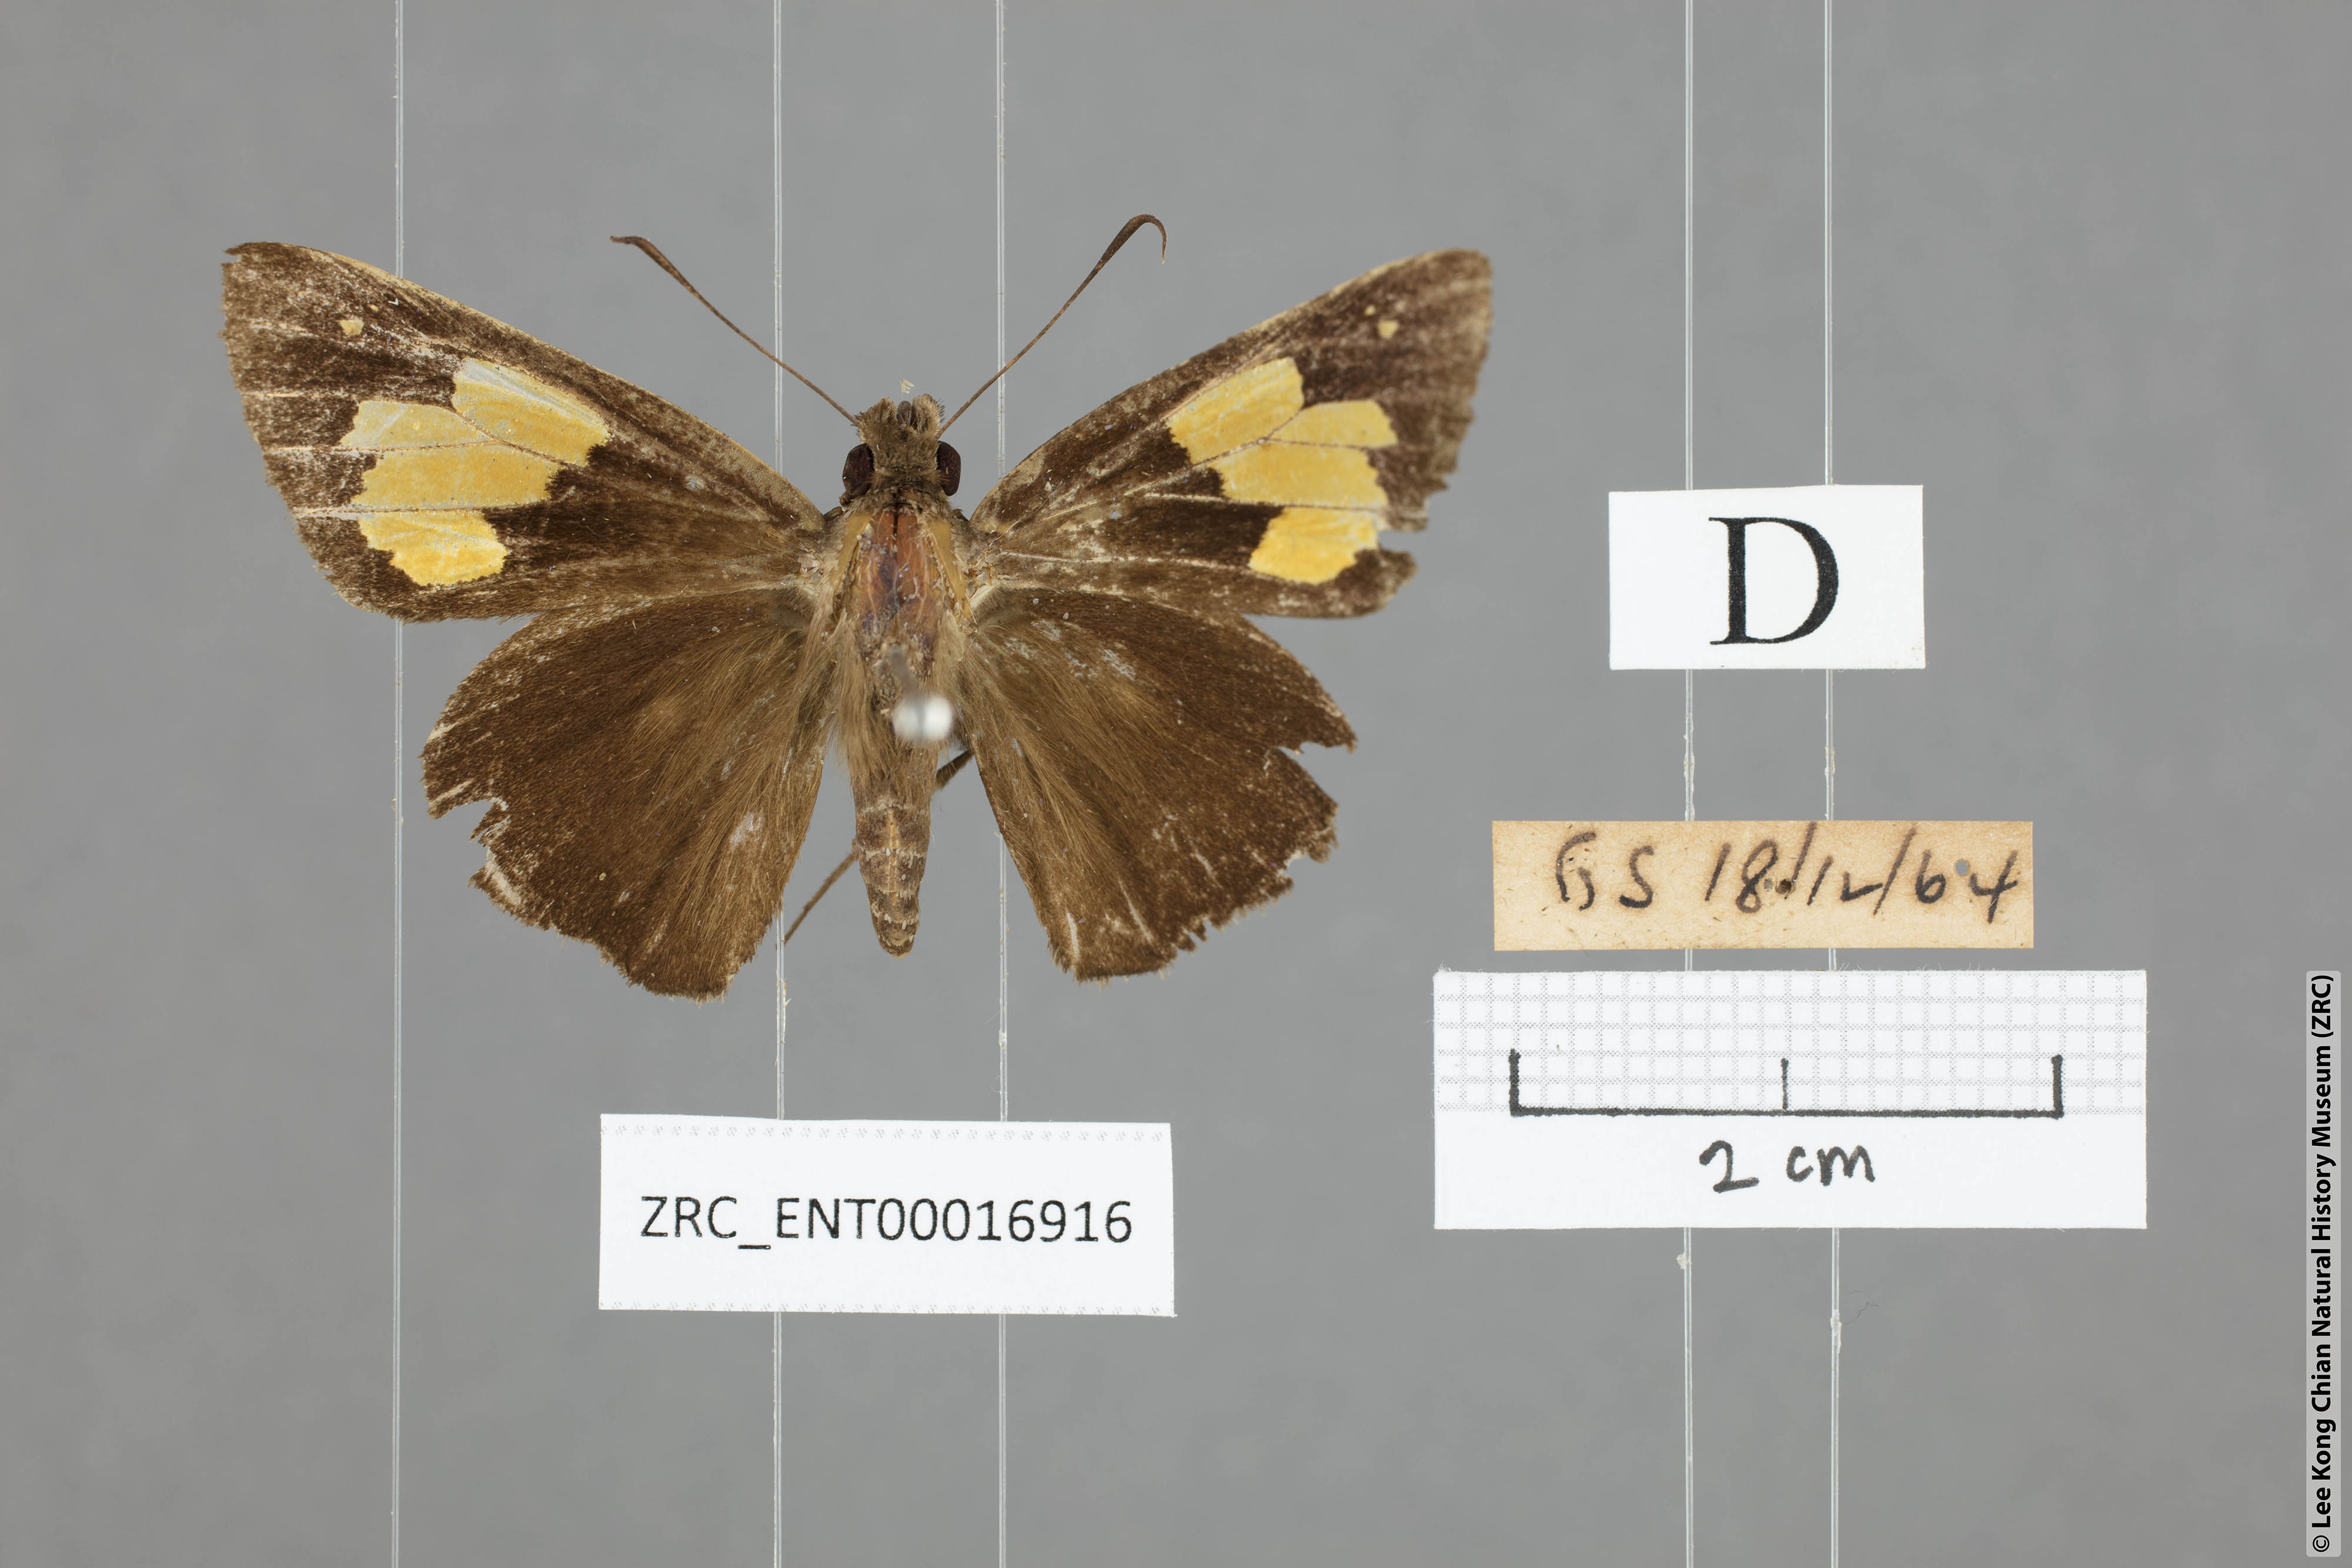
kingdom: Animalia
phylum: Arthropoda
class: Insecta
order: Lepidoptera
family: Hesperiidae
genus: Erionota
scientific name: Erionota
